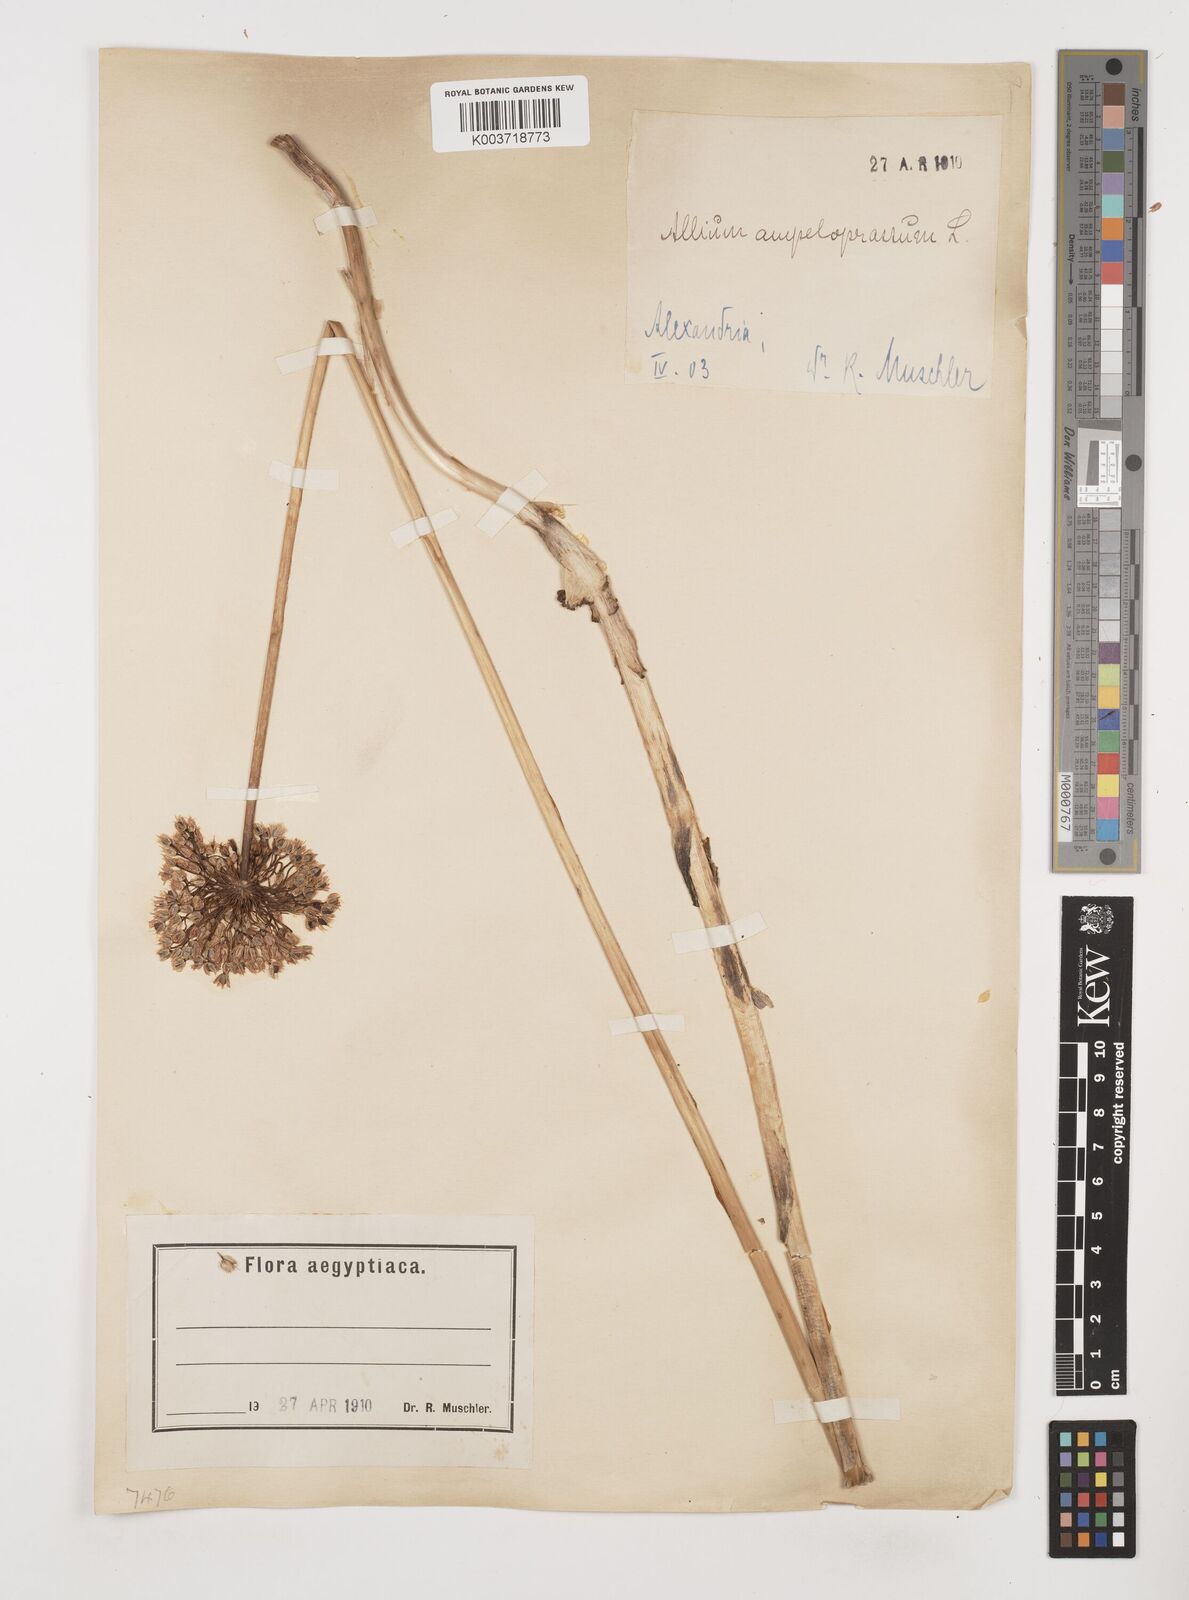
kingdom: Plantae
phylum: Tracheophyta
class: Liliopsida
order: Asparagales
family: Amaryllidaceae
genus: Allium
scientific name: Allium rotundum
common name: Sand leek
